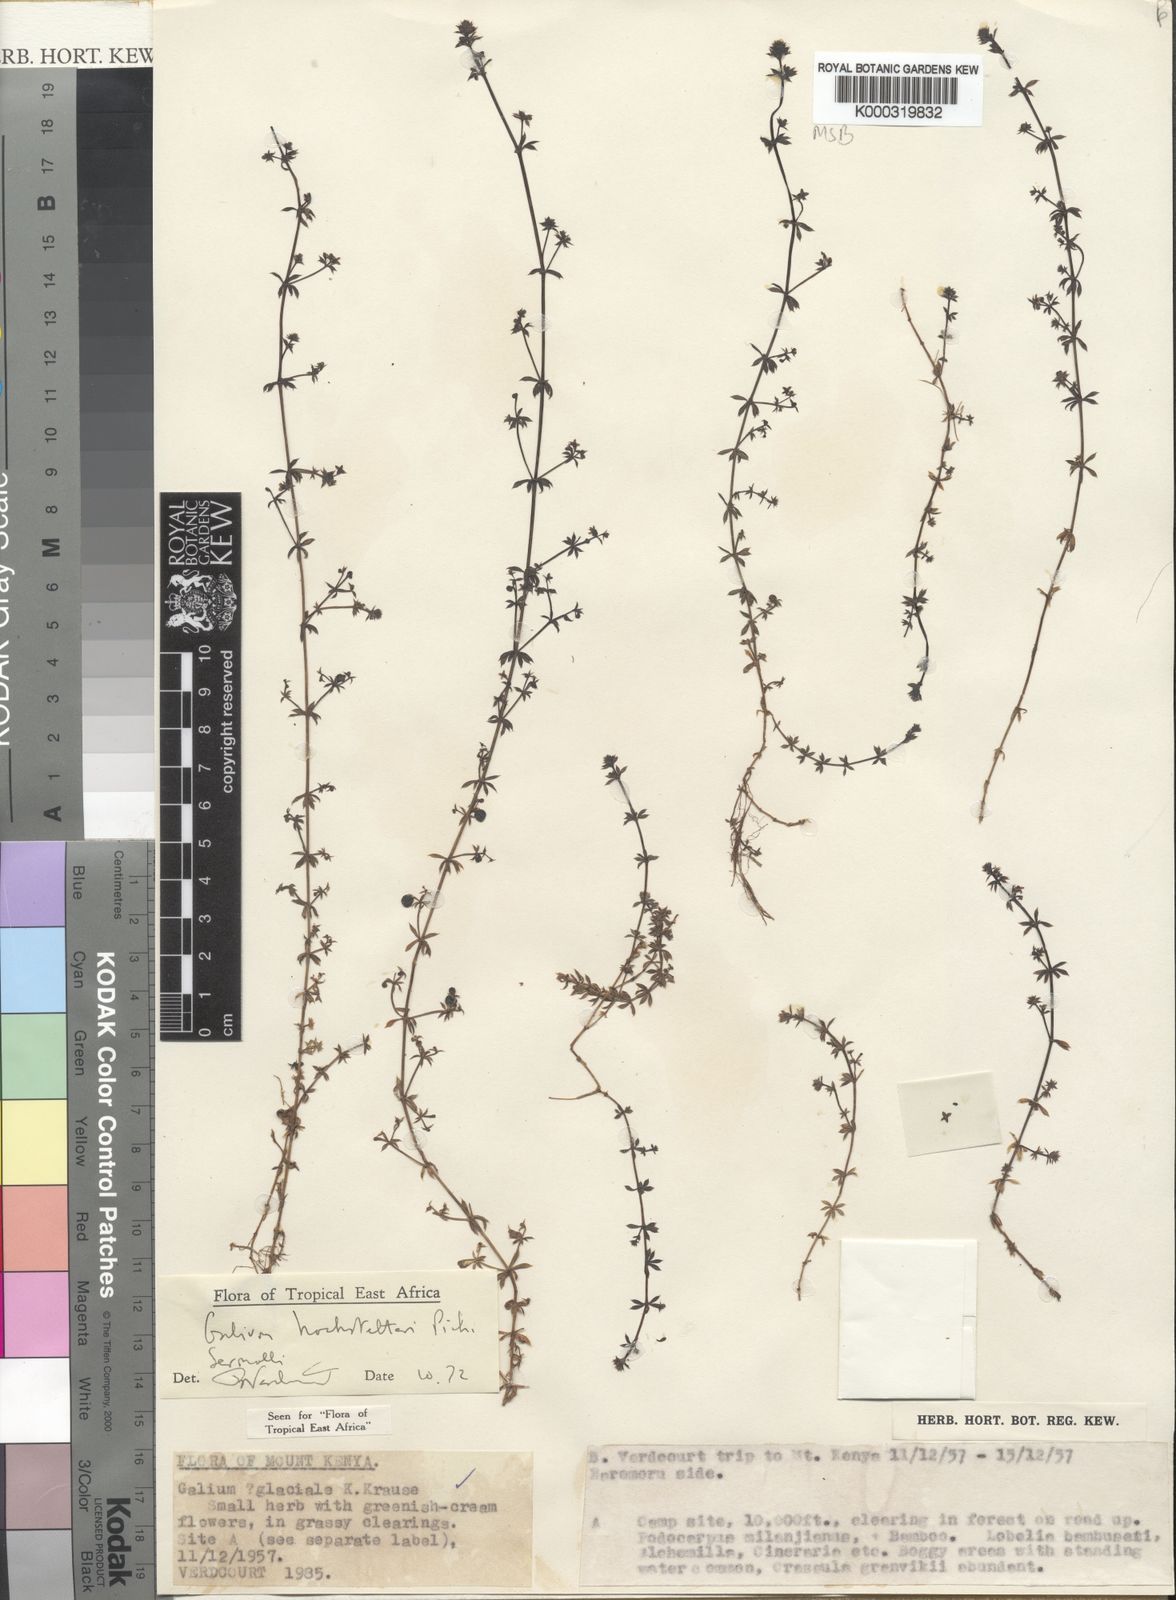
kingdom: Plantae
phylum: Tracheophyta
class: Magnoliopsida
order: Gentianales
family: Rubiaceae
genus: Galium
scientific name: Galium acrophyum
